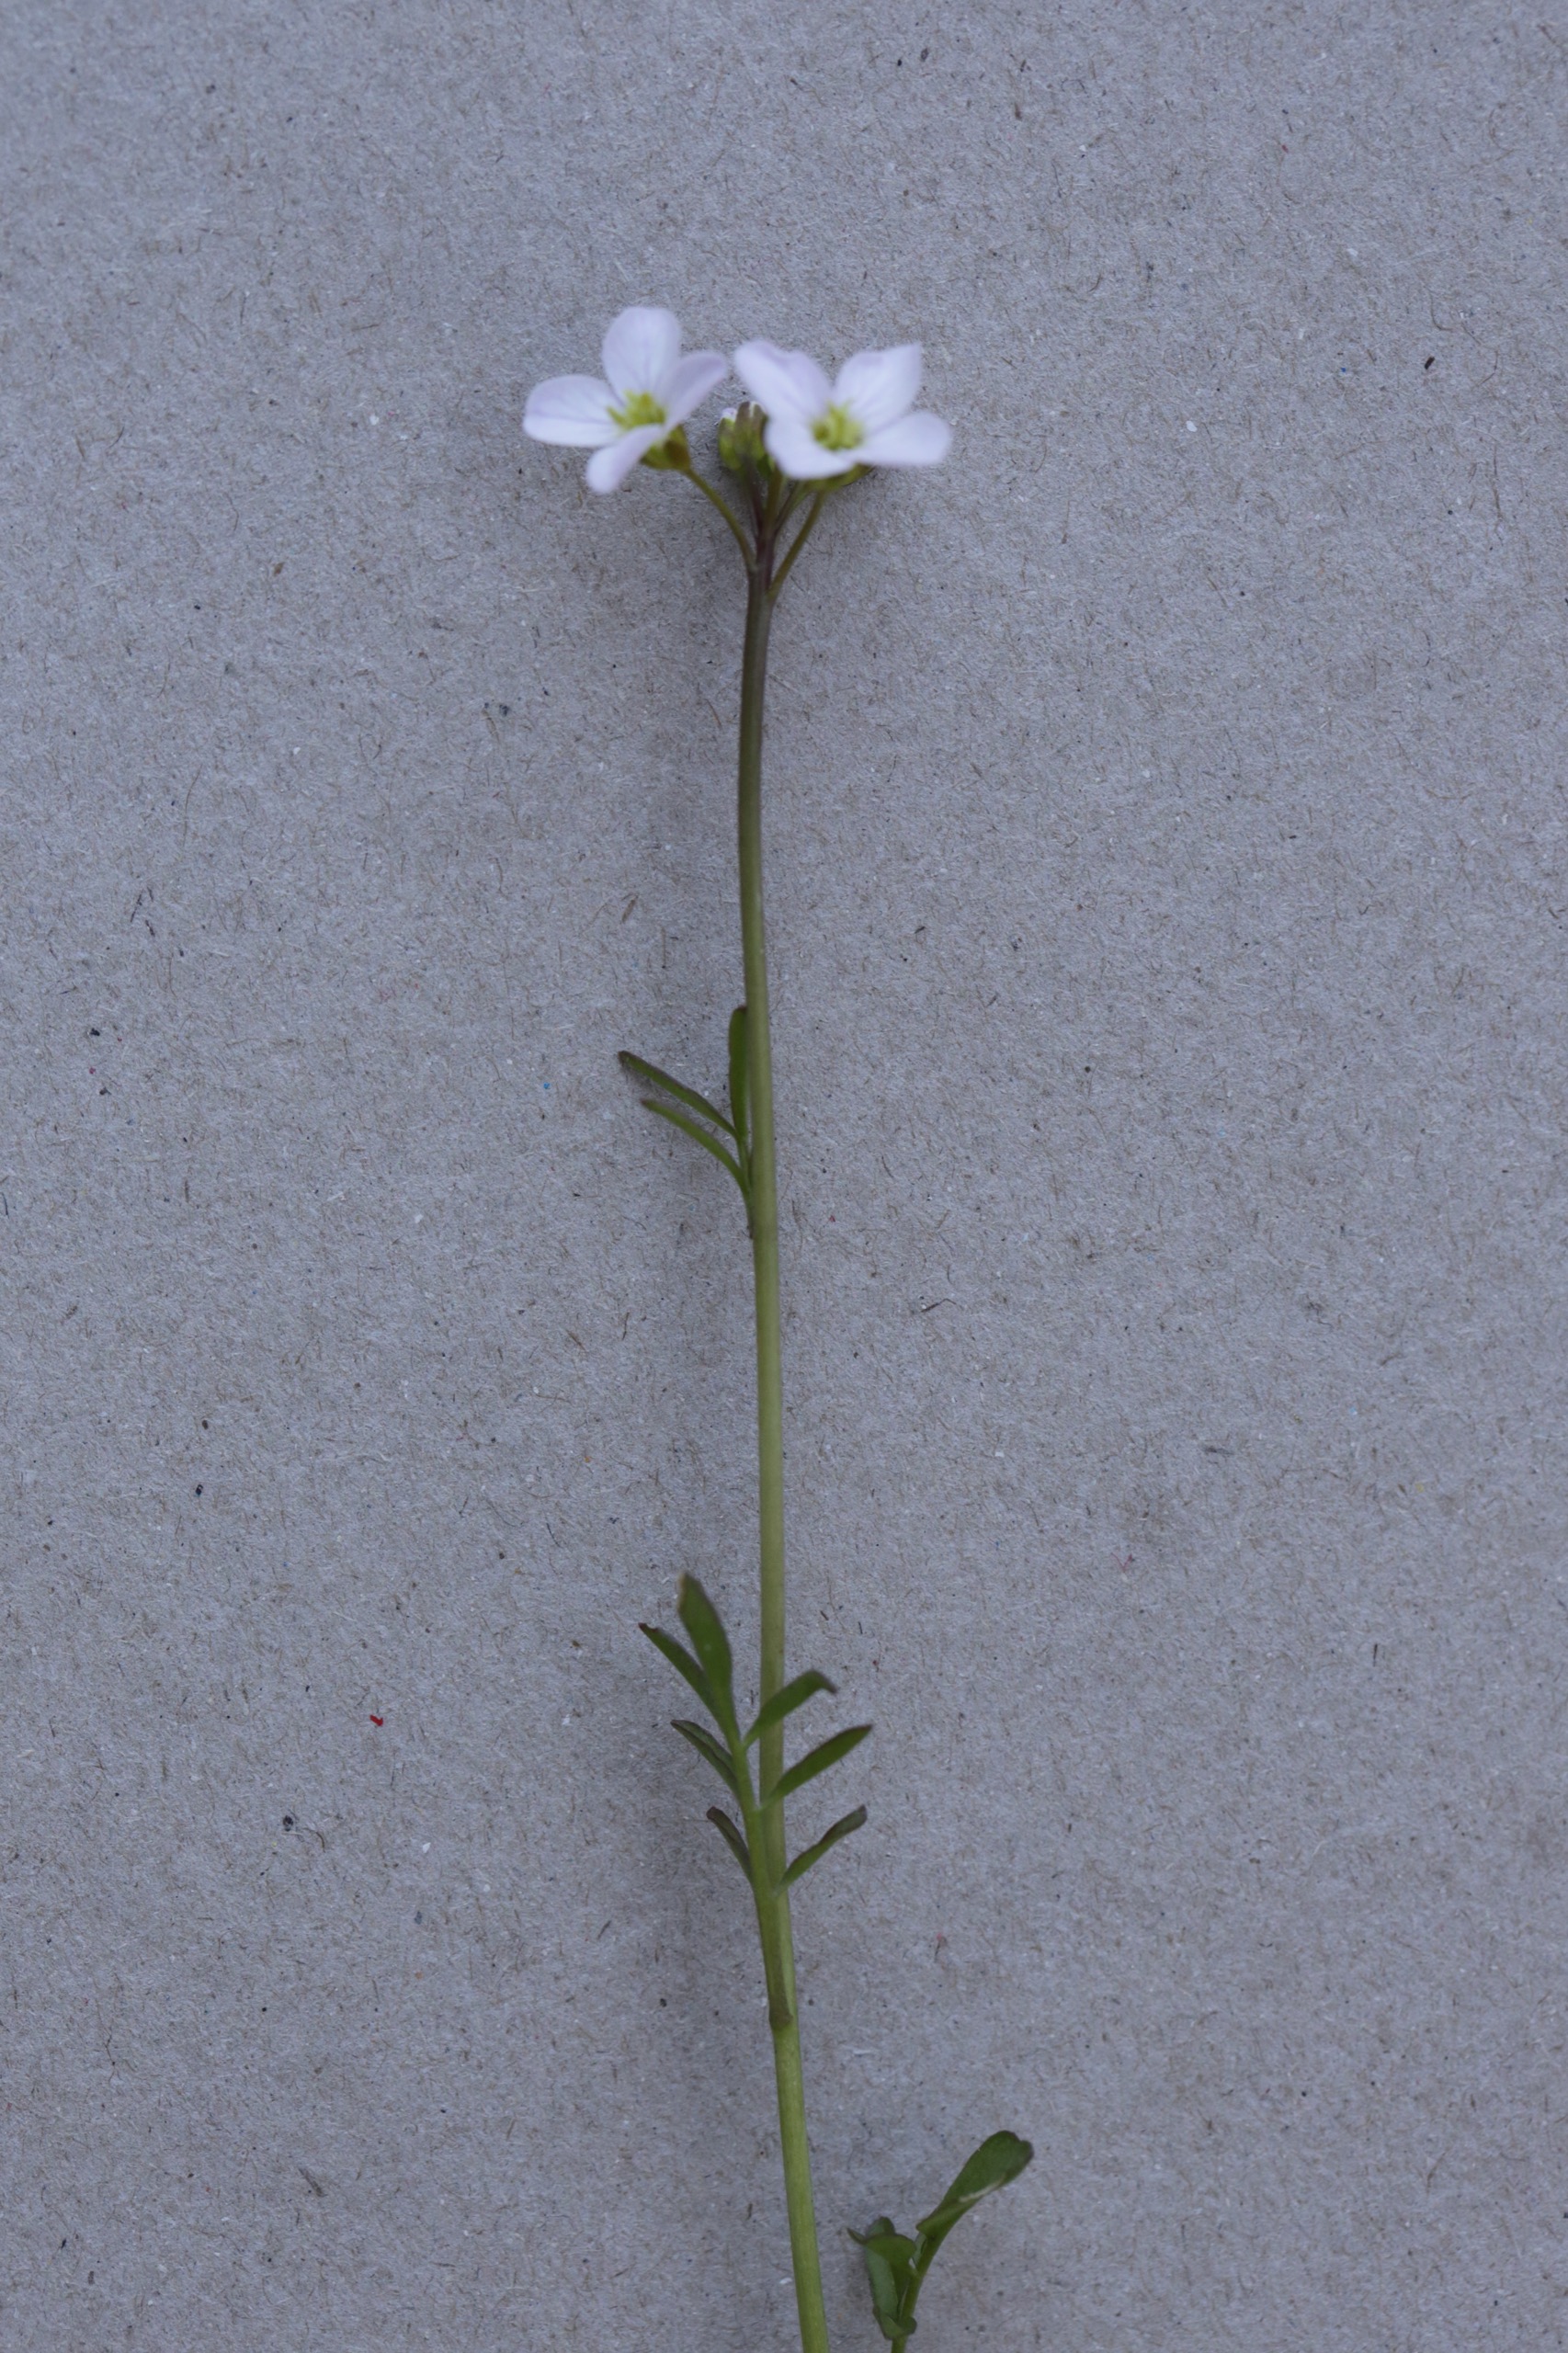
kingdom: Plantae
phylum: Tracheophyta
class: Magnoliopsida
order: Brassicales
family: Brassicaceae
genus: Cardamine
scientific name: Cardamine pratensis
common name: Engkarse
